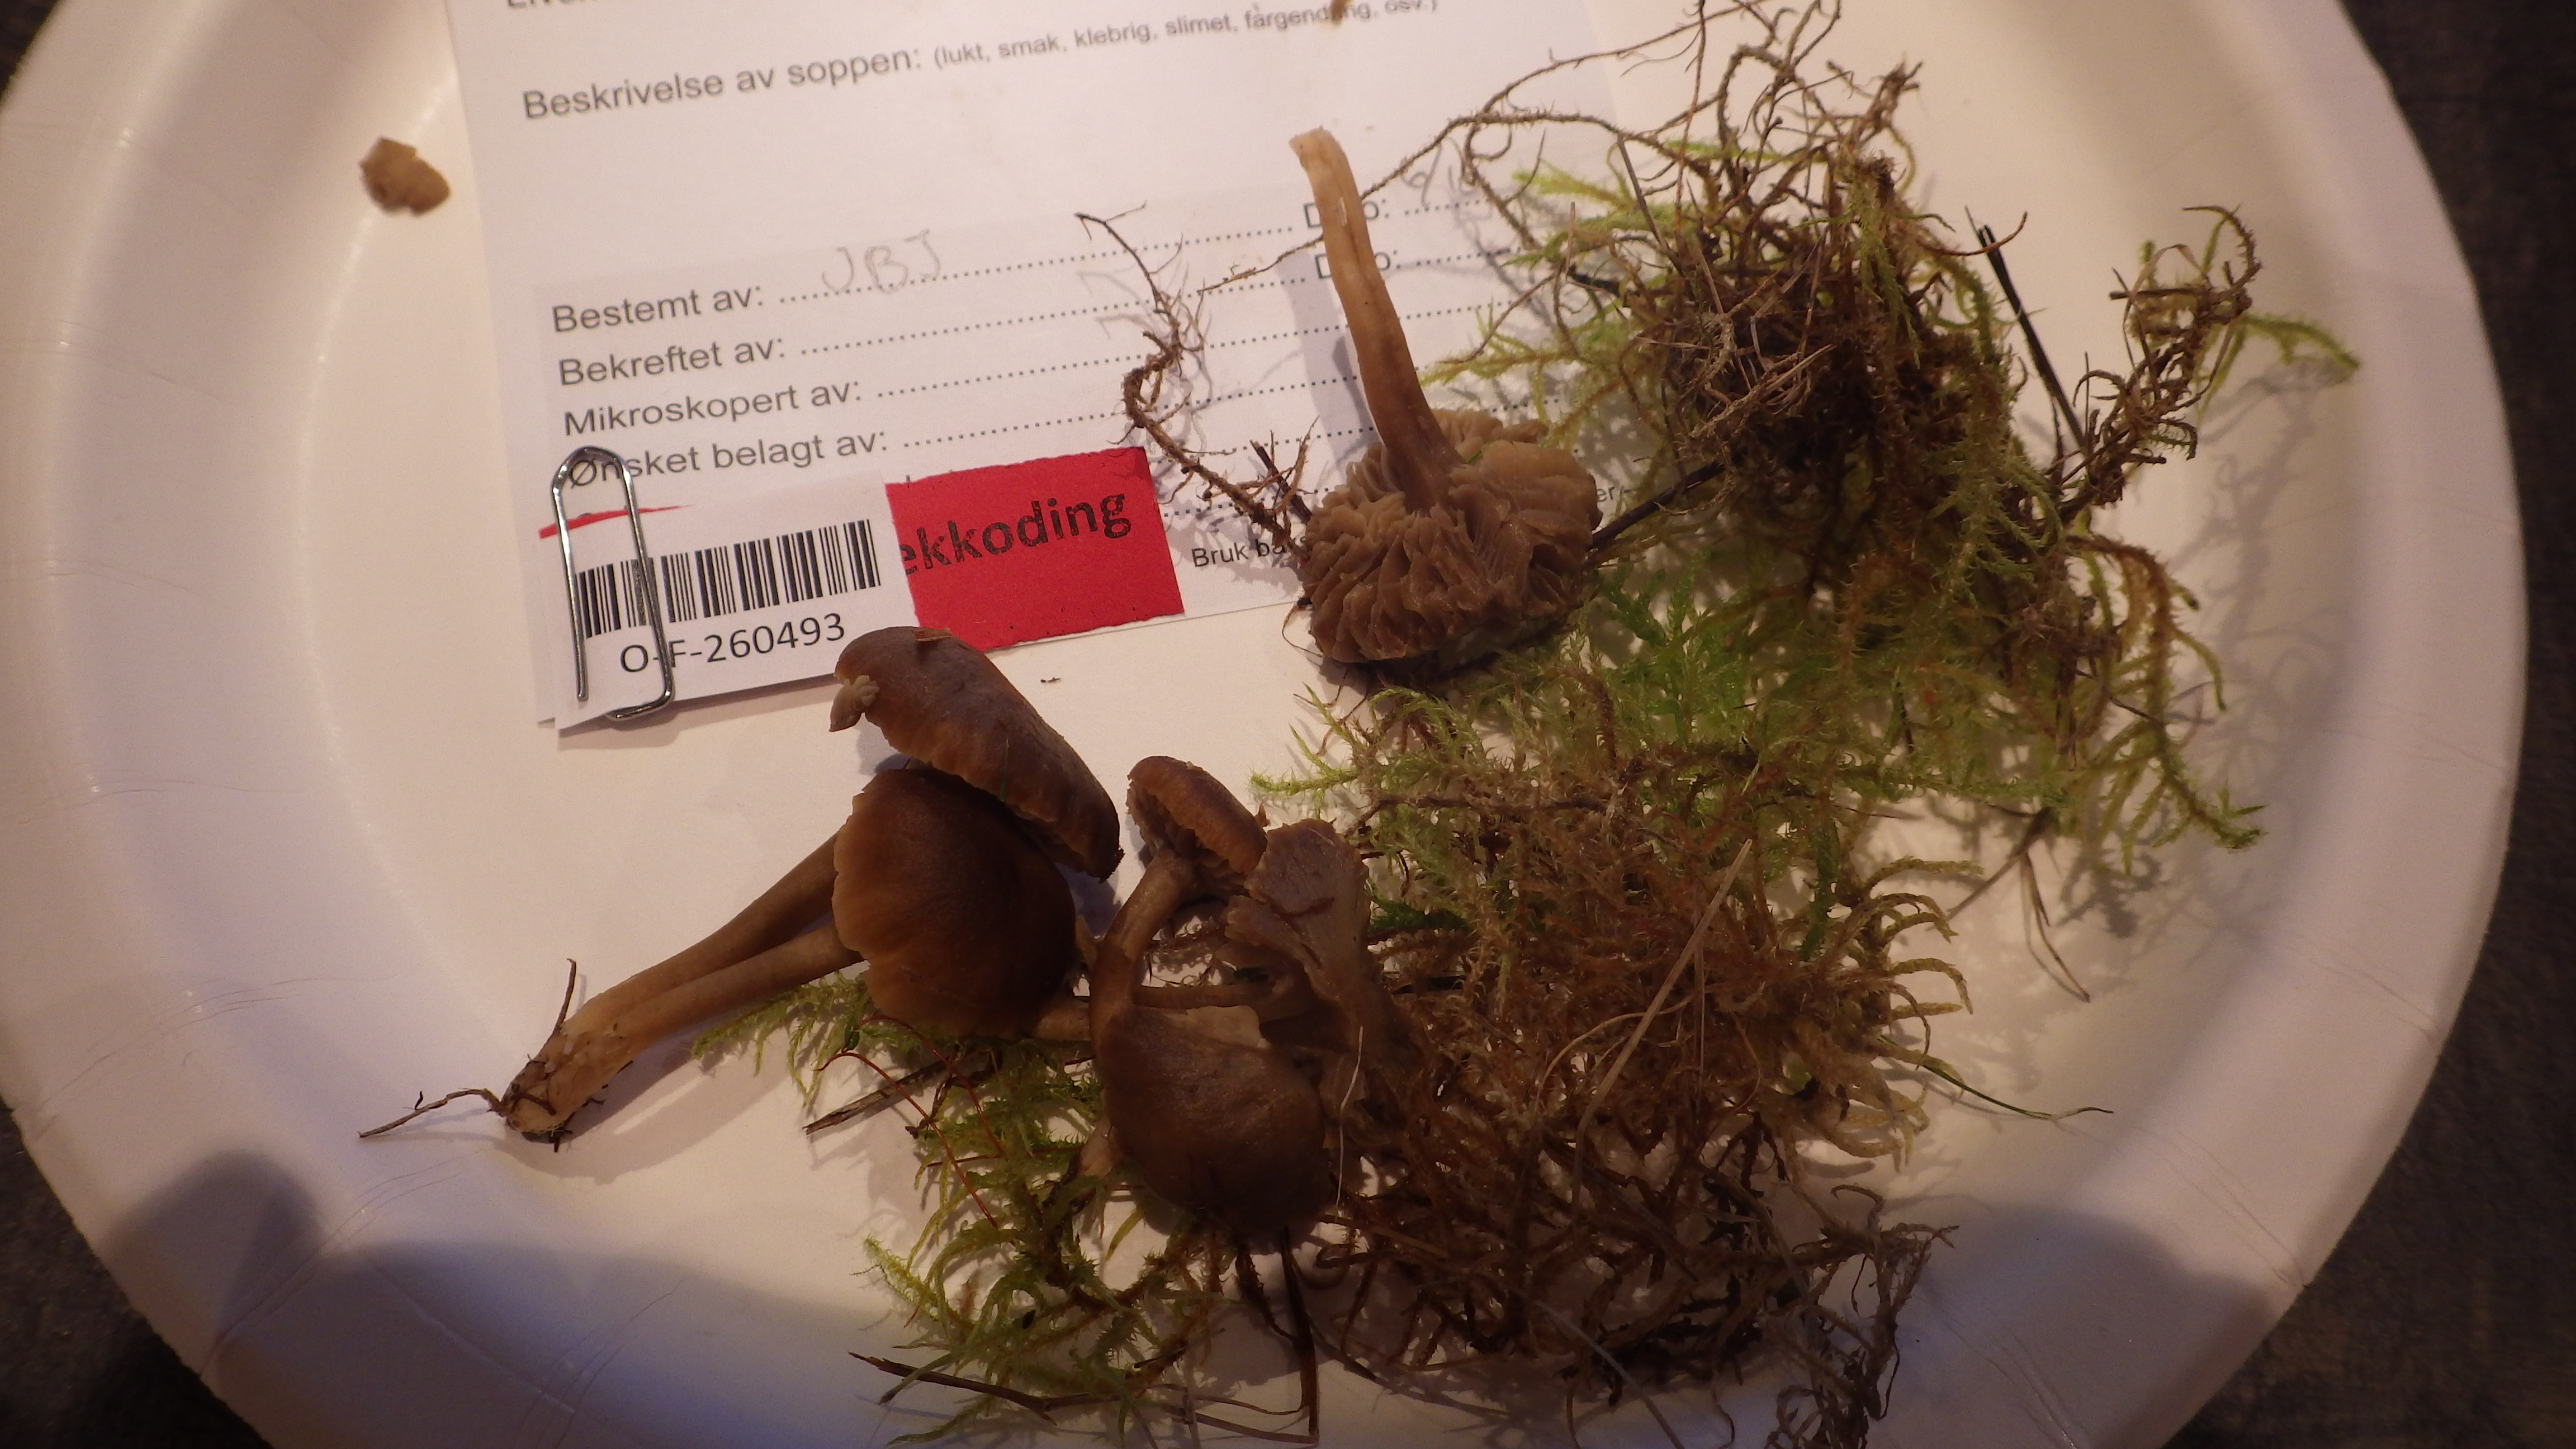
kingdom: Fungi
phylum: Basidiomycota
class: Agaricomycetes
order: Agaricales
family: Clavariaceae
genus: Camarophyllopsis
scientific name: Camarophyllopsis schulzeri
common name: Matt fanvault
